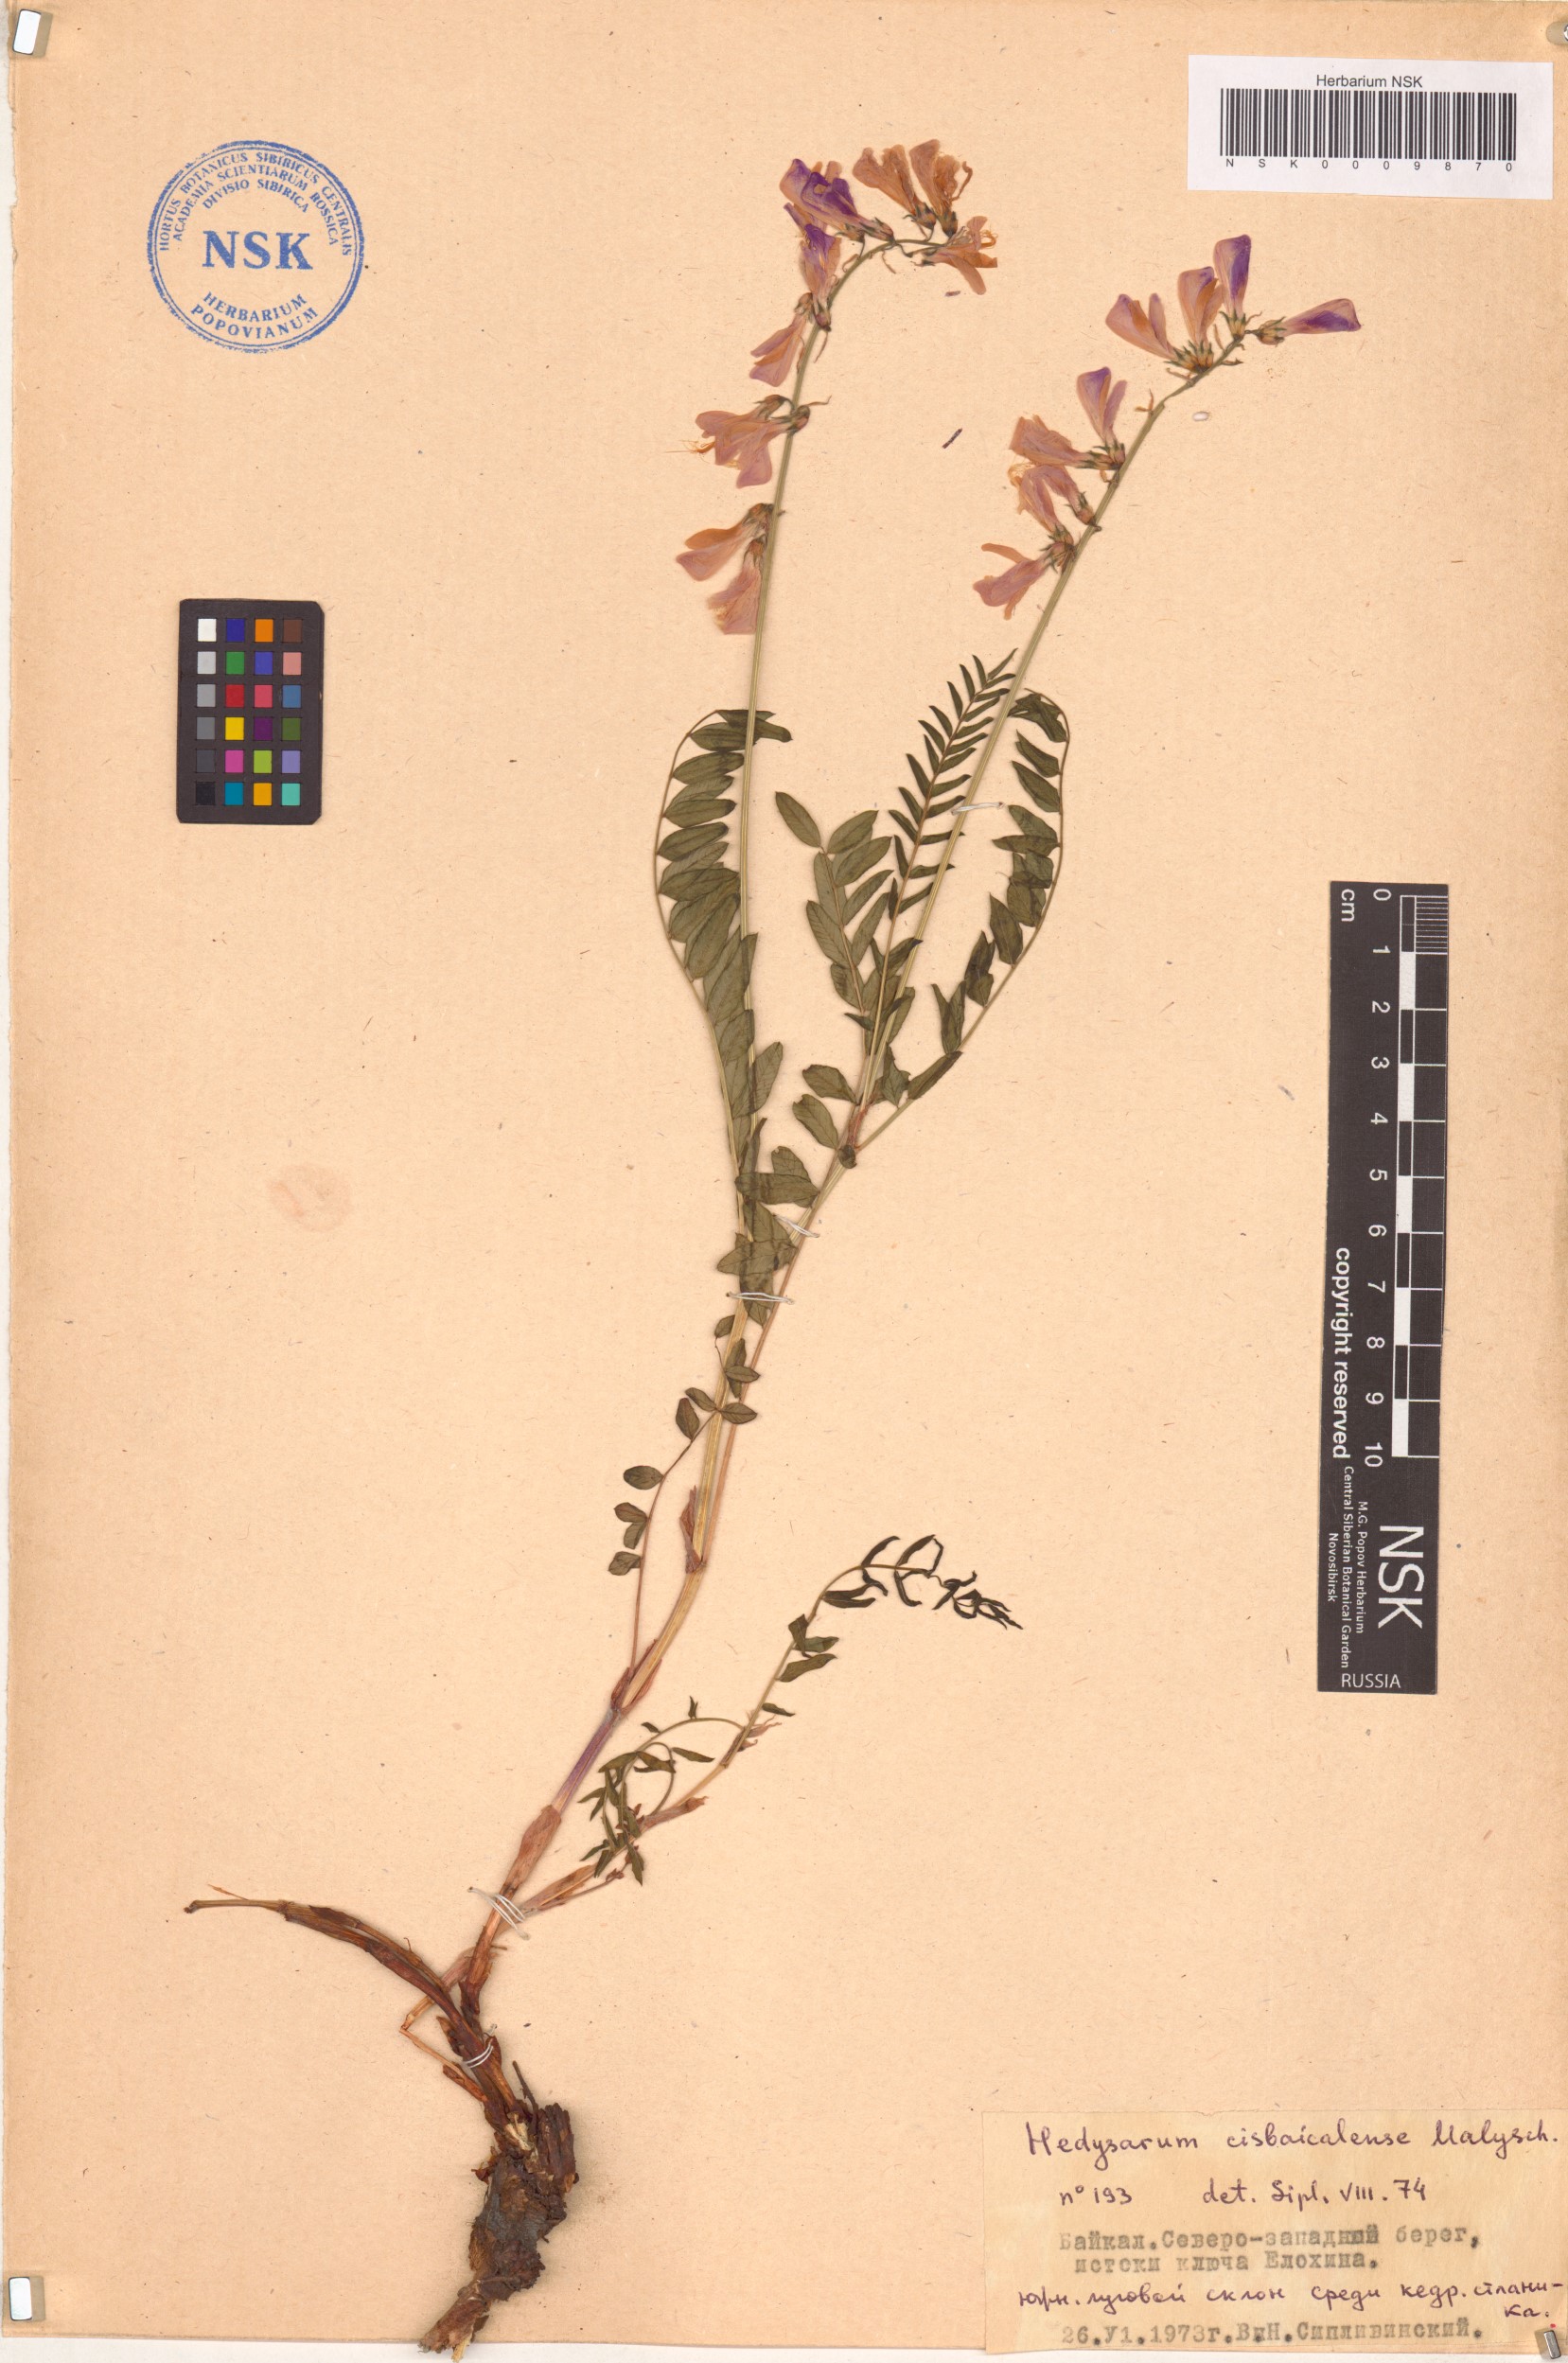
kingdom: Plantae
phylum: Tracheophyta
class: Magnoliopsida
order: Fabales
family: Fabaceae
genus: Hedysarum
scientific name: Hedysarum cisbaicalense
